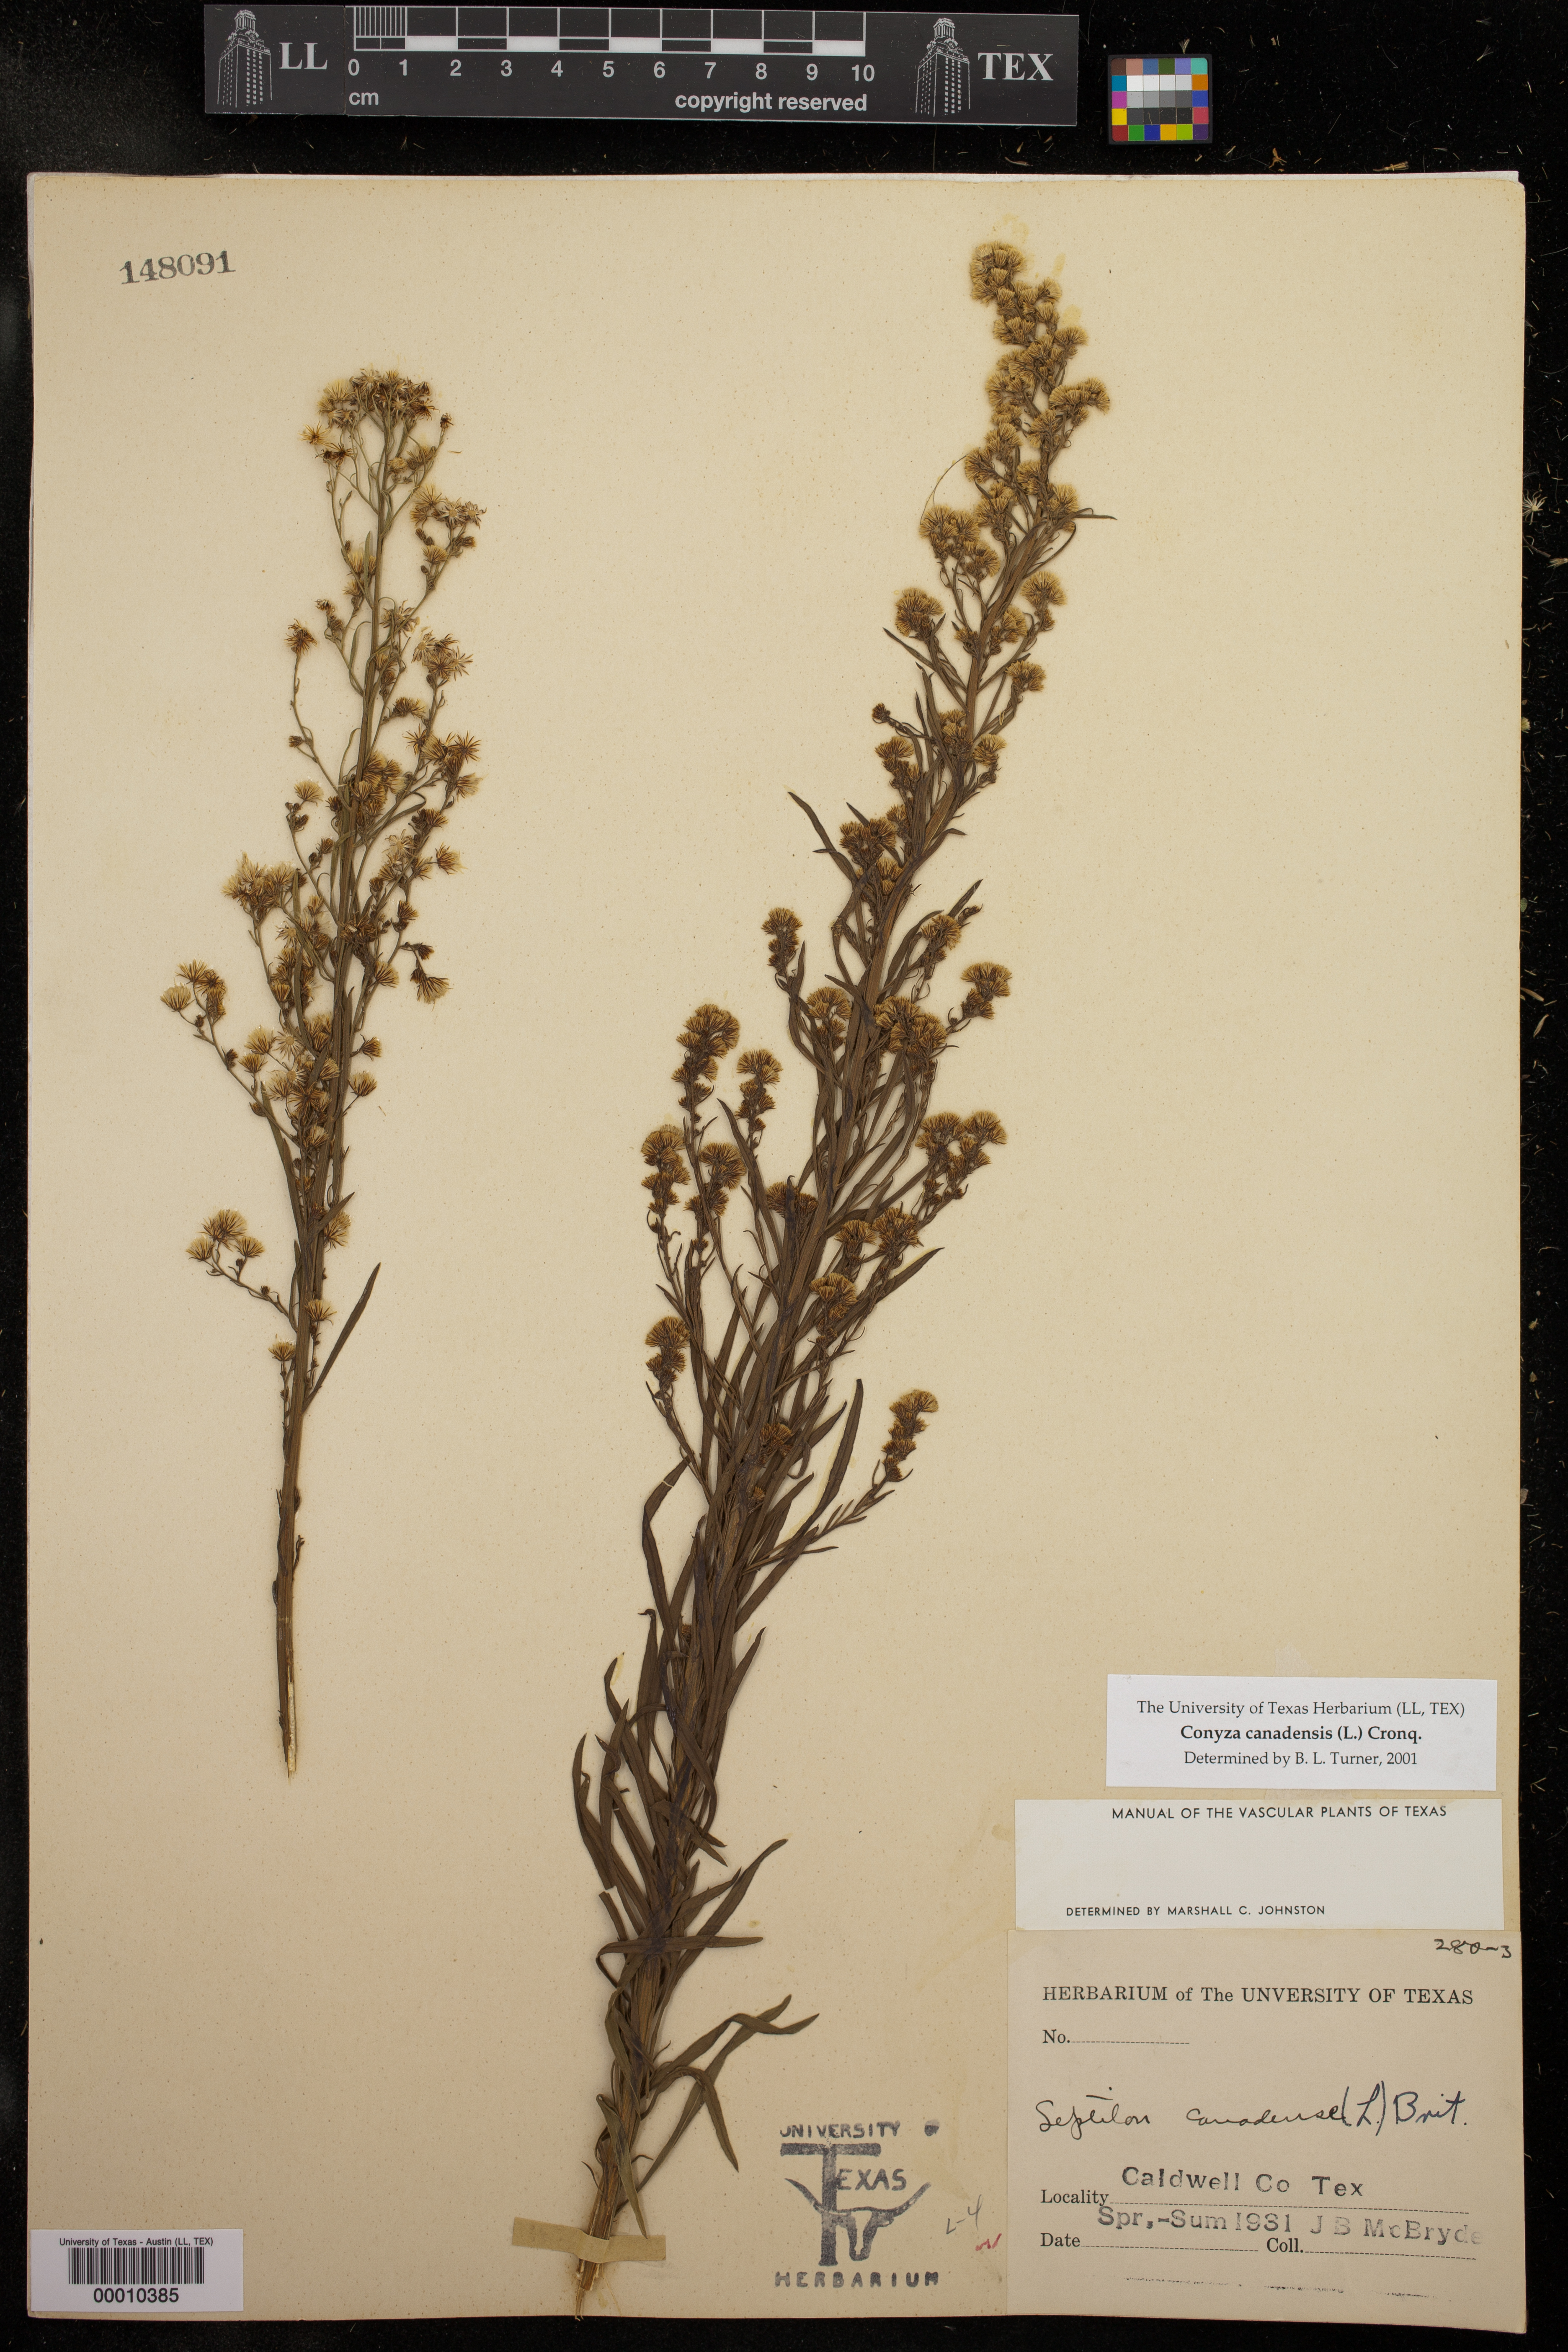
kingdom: Plantae
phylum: Tracheophyta
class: Magnoliopsida
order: Asterales
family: Asteraceae
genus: Erigeron
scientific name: Erigeron canadensis
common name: Canadian fleabane
